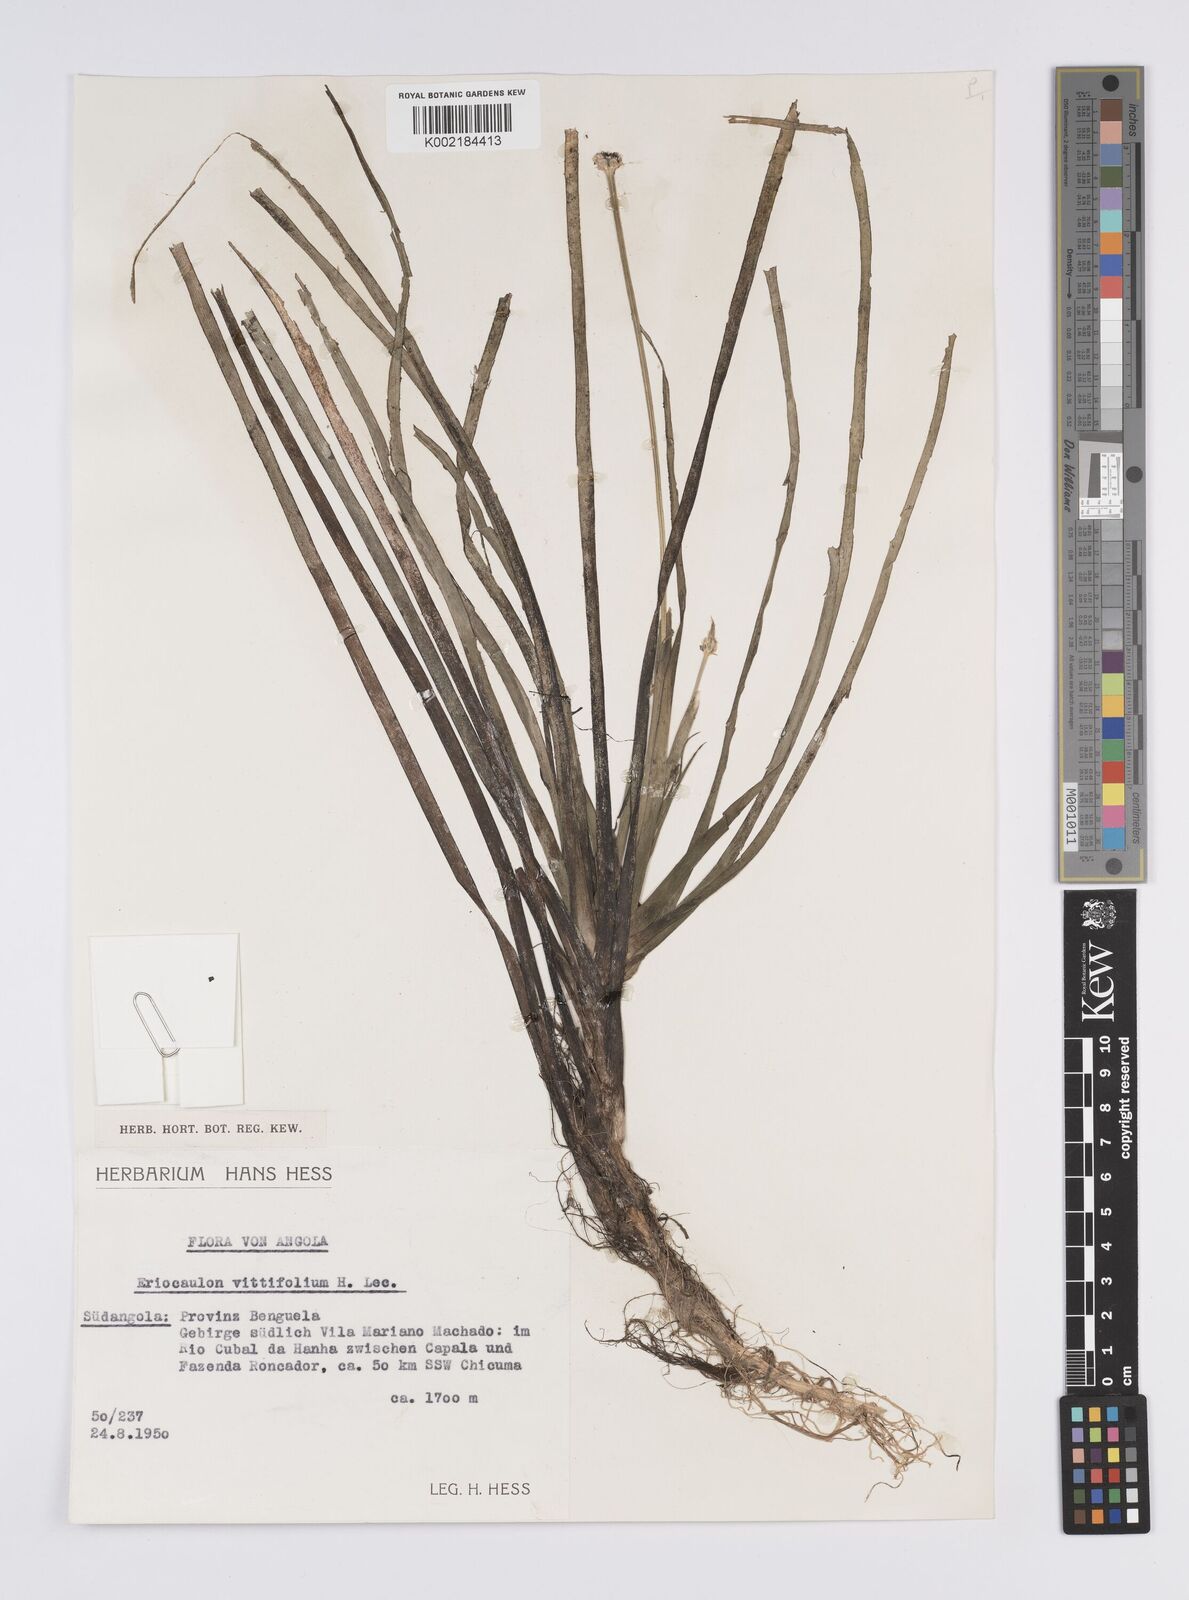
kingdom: Plantae
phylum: Tracheophyta
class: Liliopsida
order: Poales
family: Eriocaulaceae
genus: Eriocaulon
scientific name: Eriocaulon latifolium
